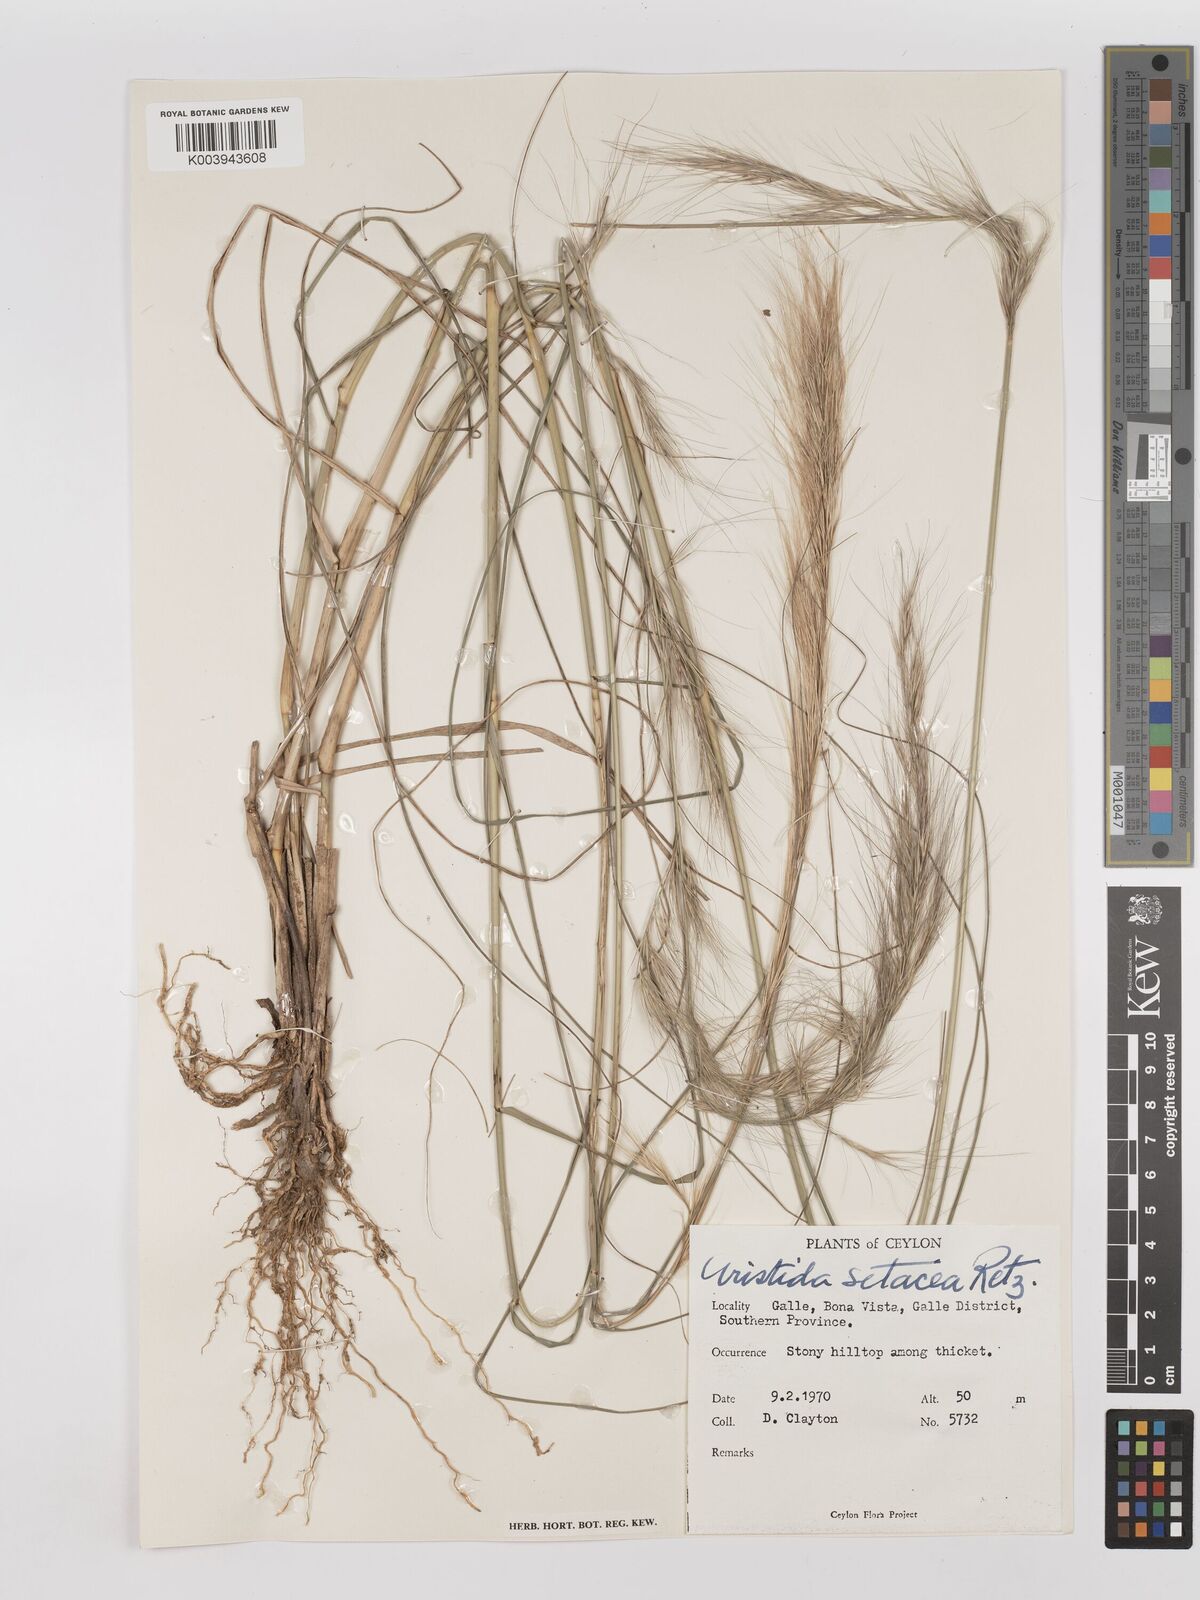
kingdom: Plantae
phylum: Tracheophyta
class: Liliopsida
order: Poales
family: Poaceae
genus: Aristida
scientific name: Aristida setacea
